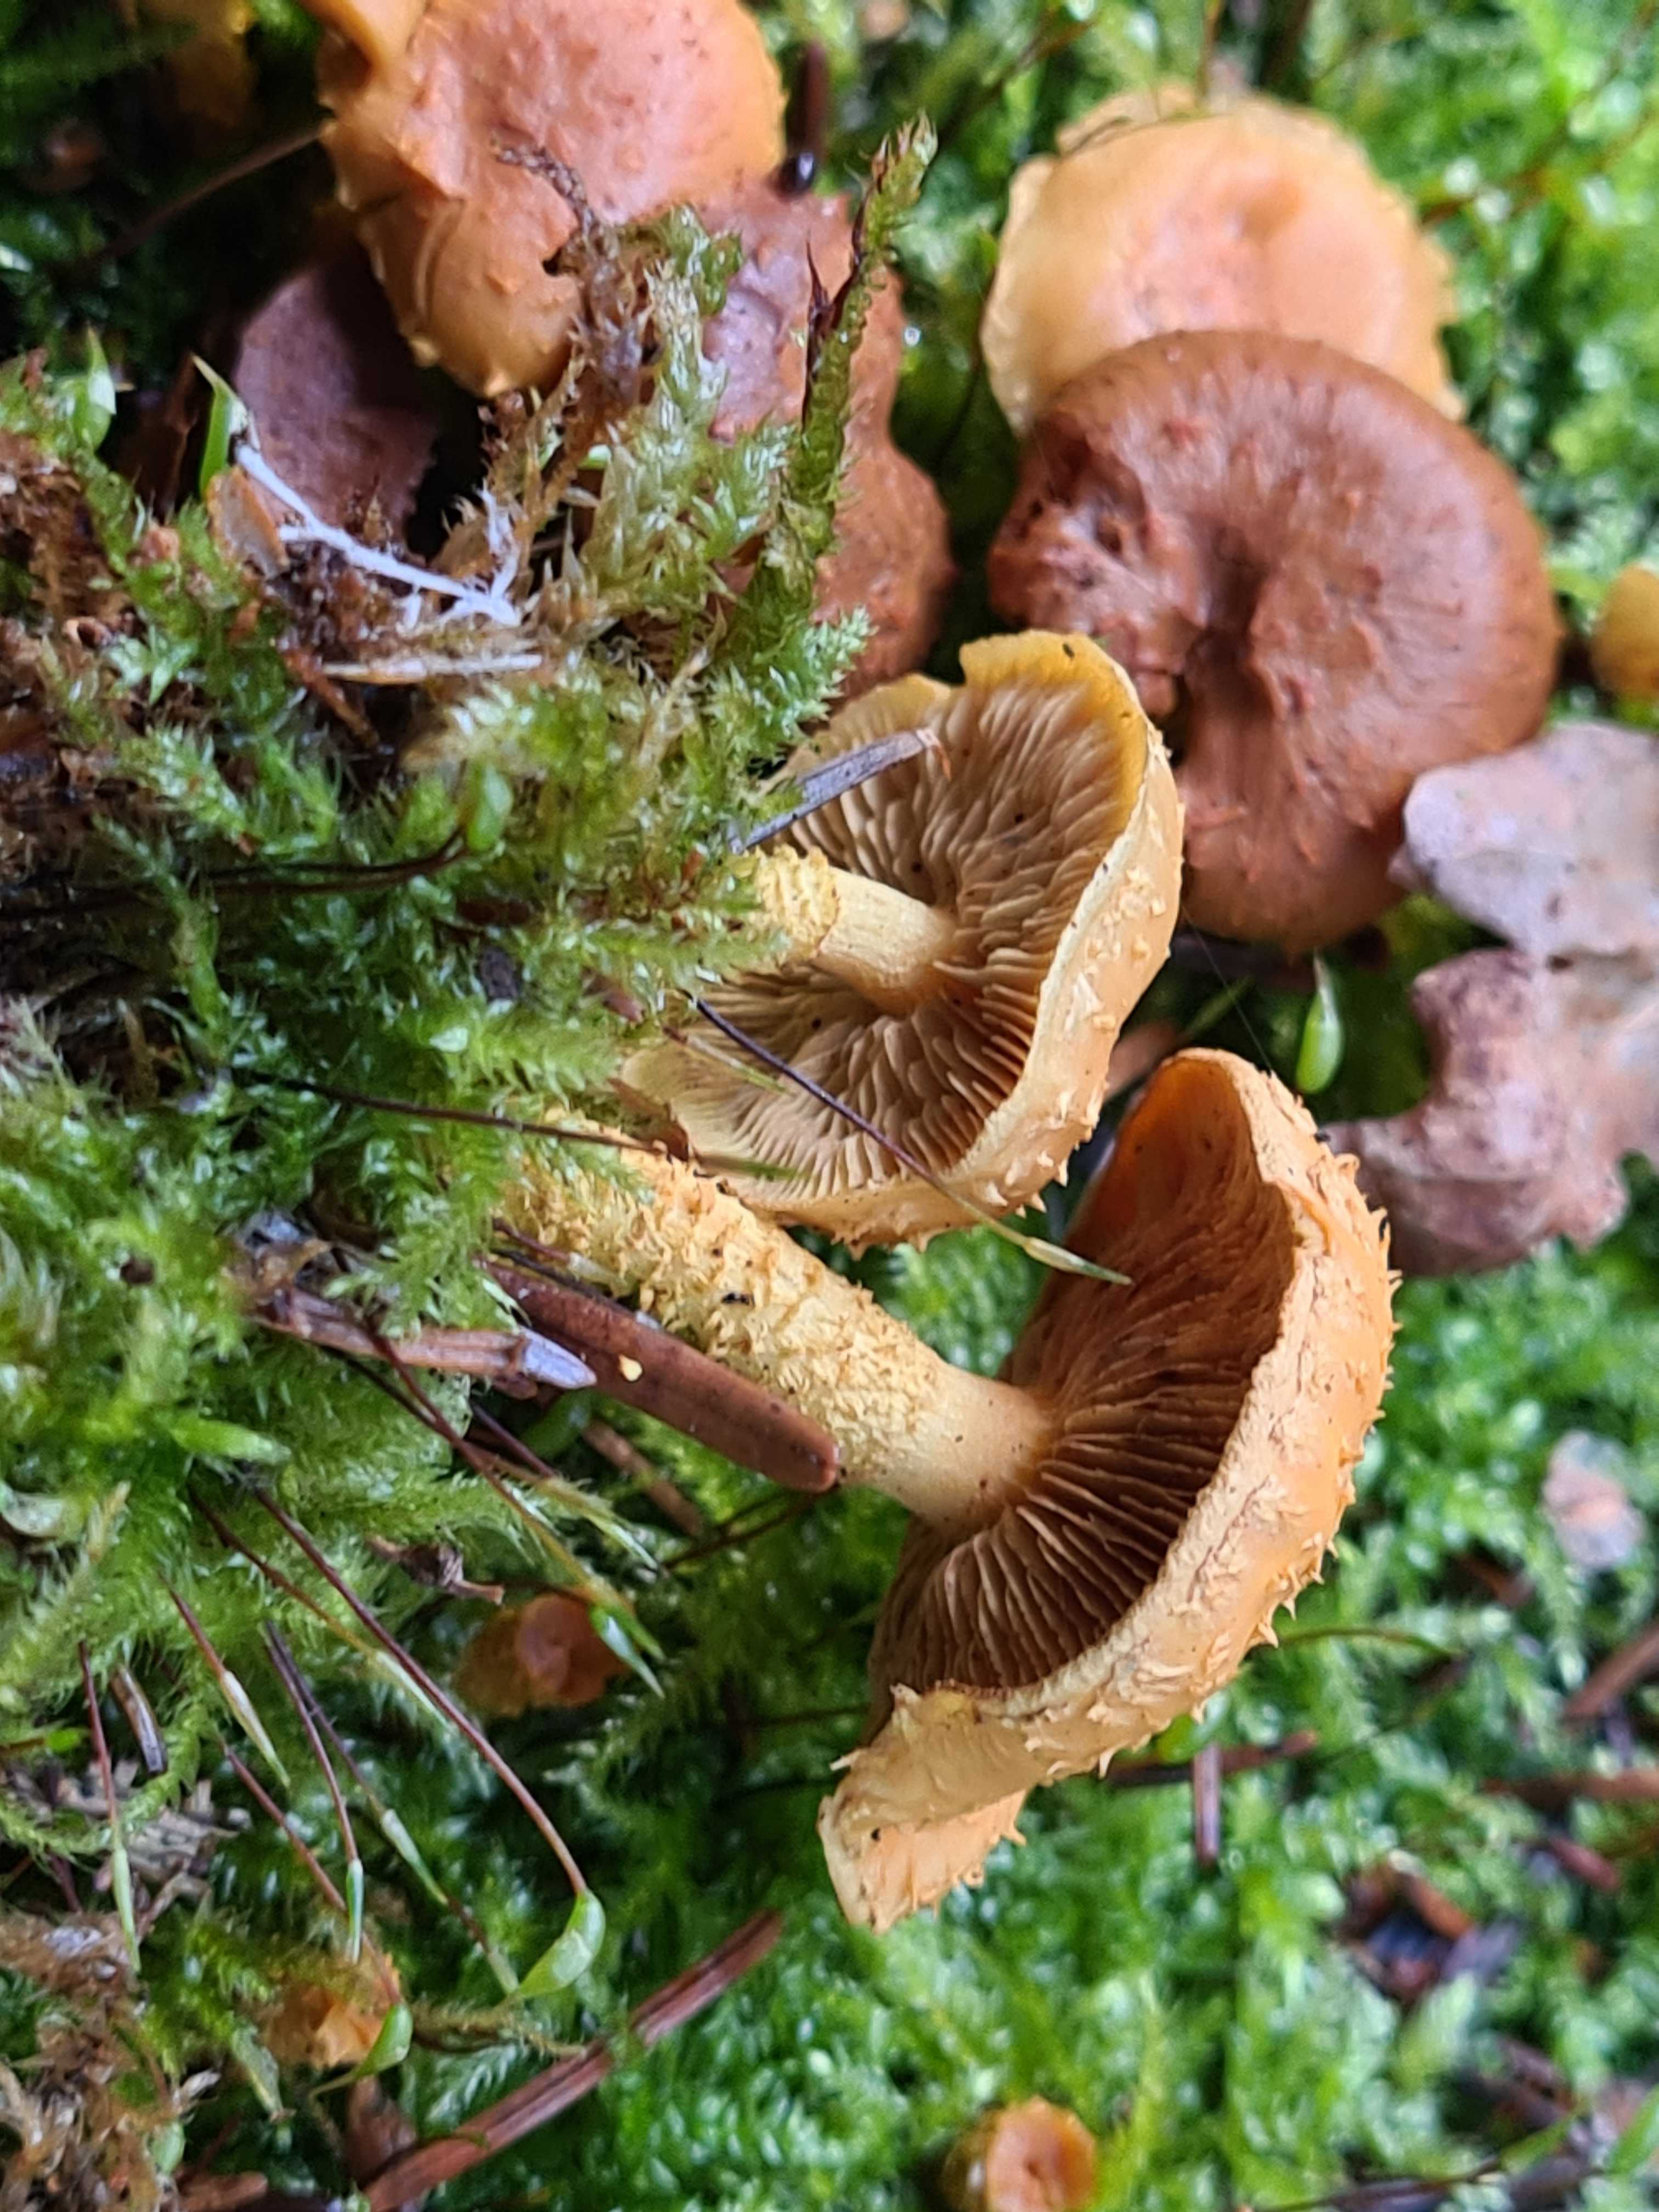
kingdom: Fungi
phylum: Basidiomycota
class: Agaricomycetes
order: Agaricales
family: Strophariaceae
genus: Pholiota
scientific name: Pholiota flammans
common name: flamme-skælhat
